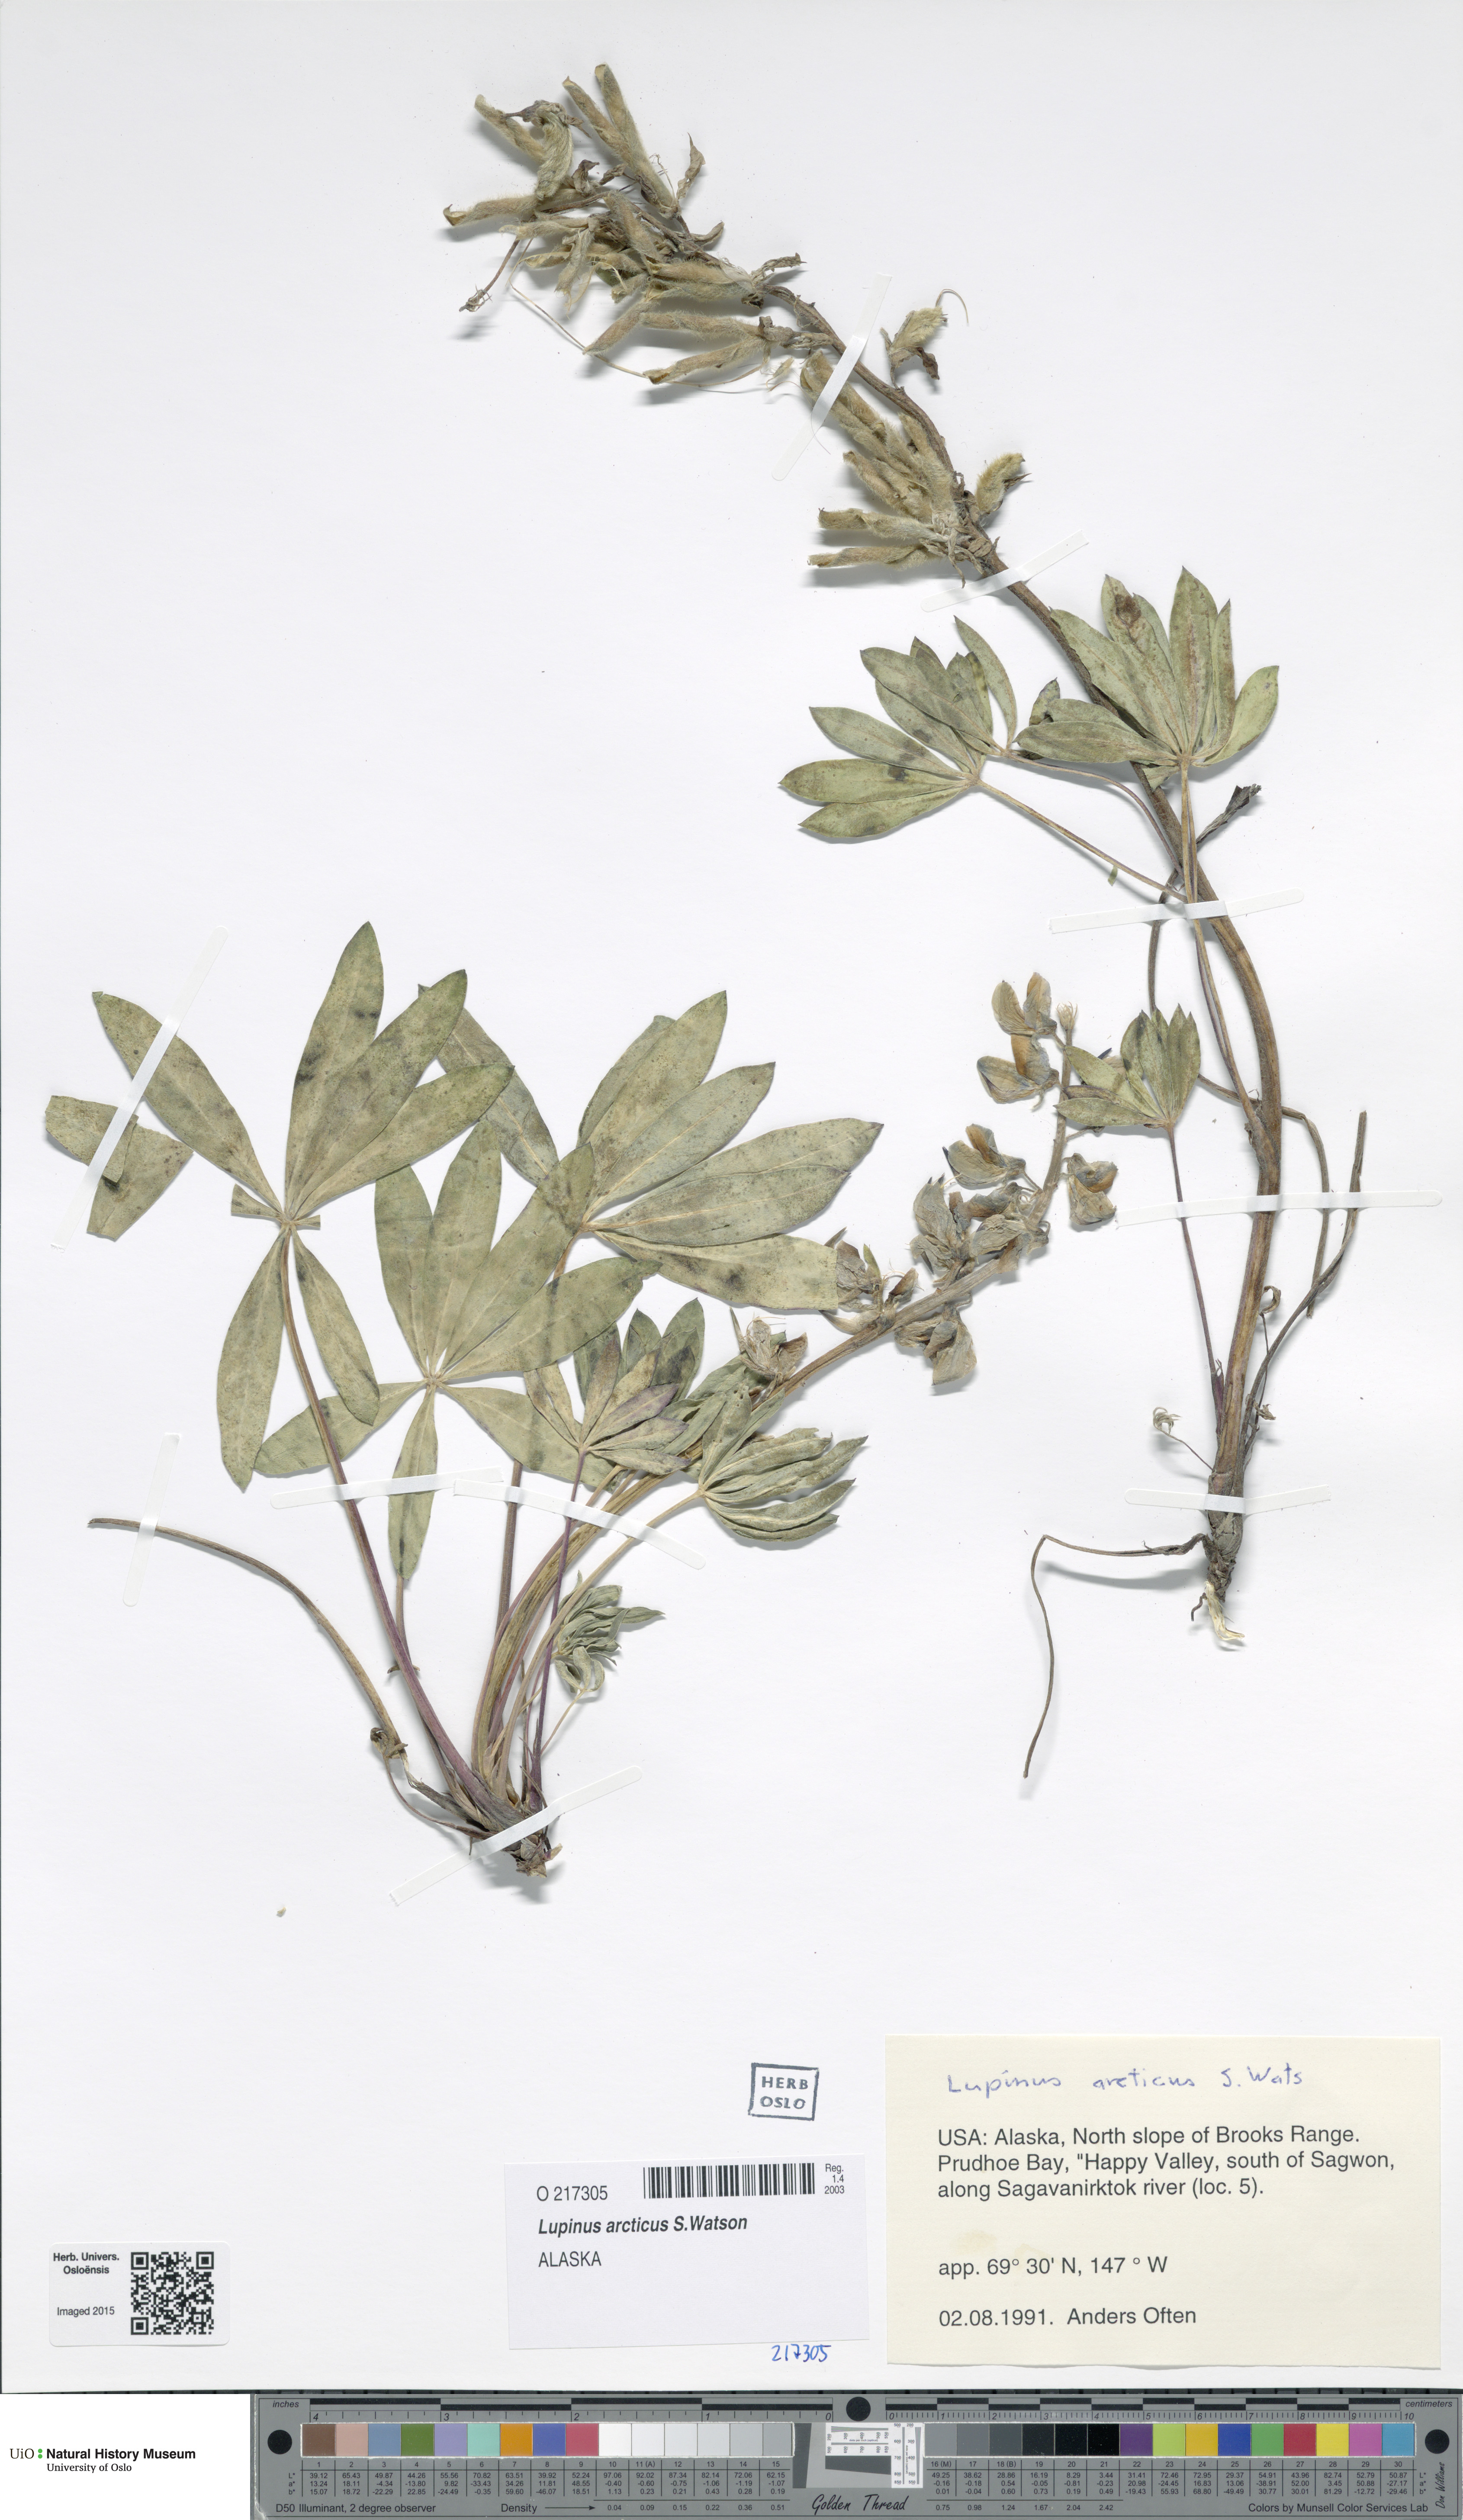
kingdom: Plantae
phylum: Tracheophyta
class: Magnoliopsida
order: Fabales
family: Fabaceae
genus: Lupinus
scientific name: Lupinus arcticus
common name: Arctic lupine
